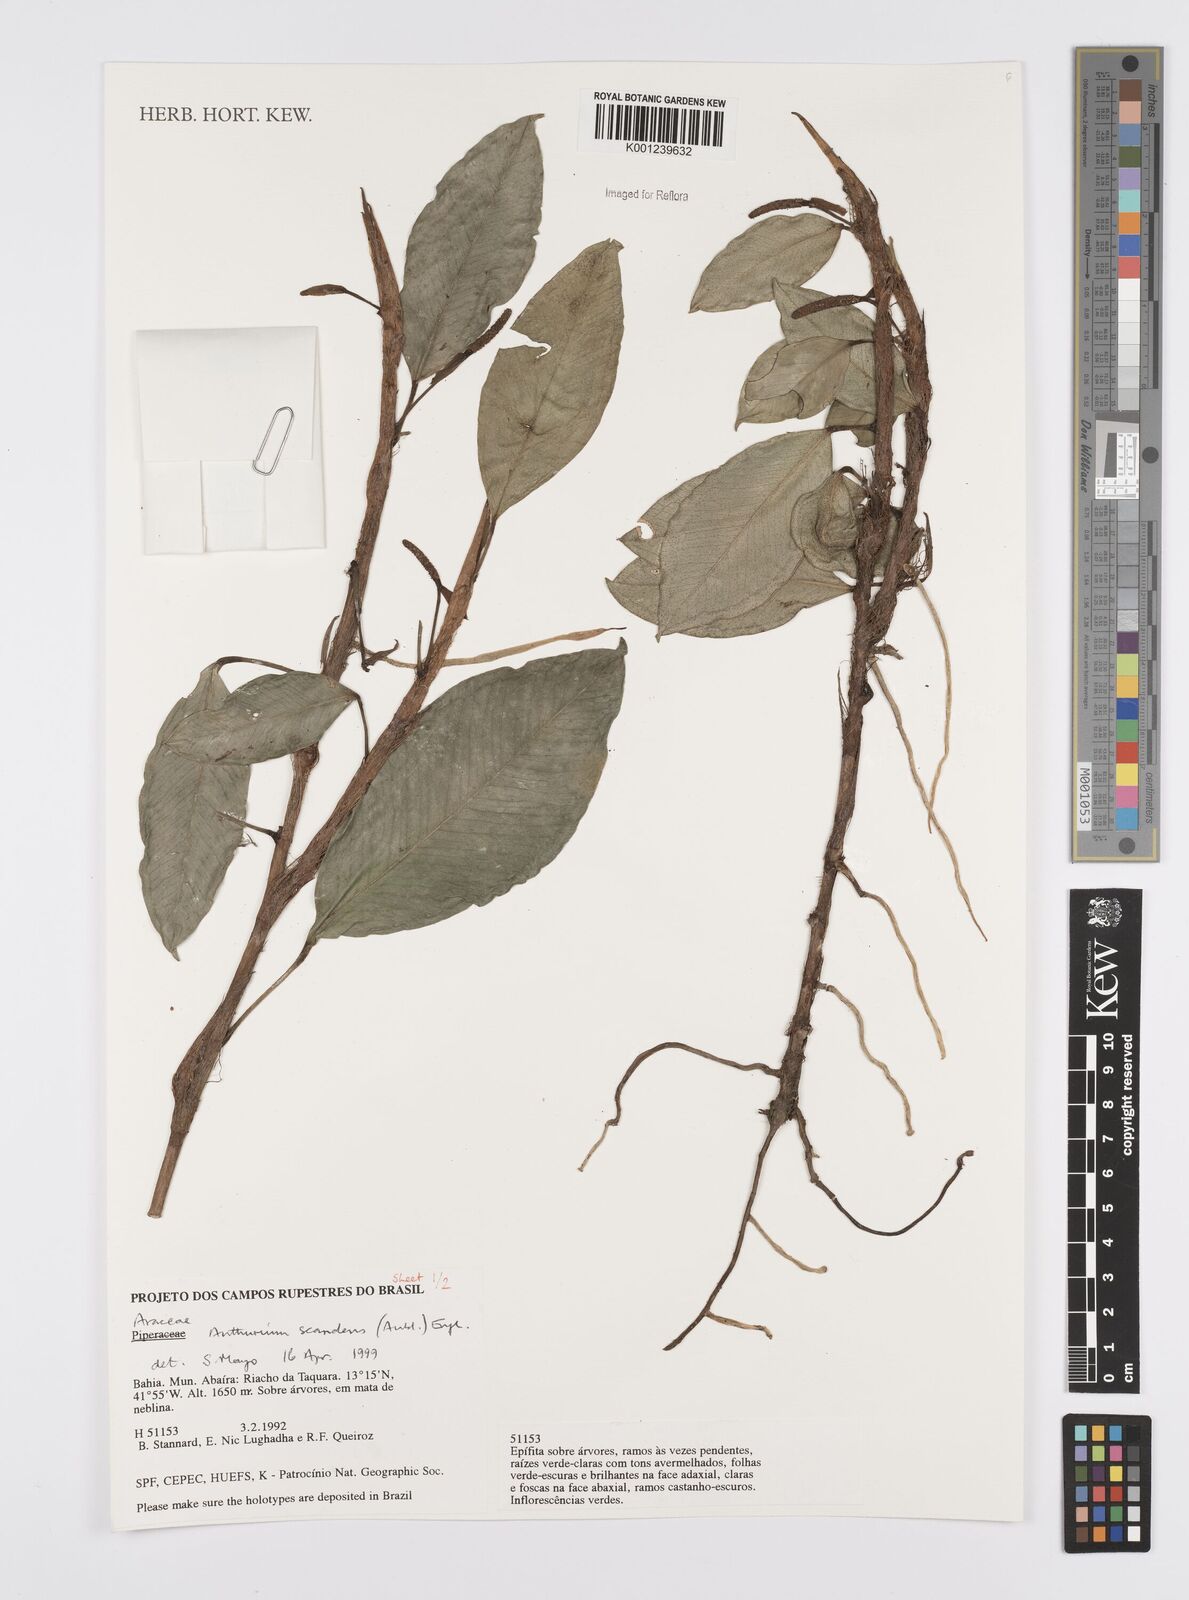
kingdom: Plantae
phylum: Tracheophyta
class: Liliopsida
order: Alismatales
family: Araceae
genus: Anthurium
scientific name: Anthurium scandens
